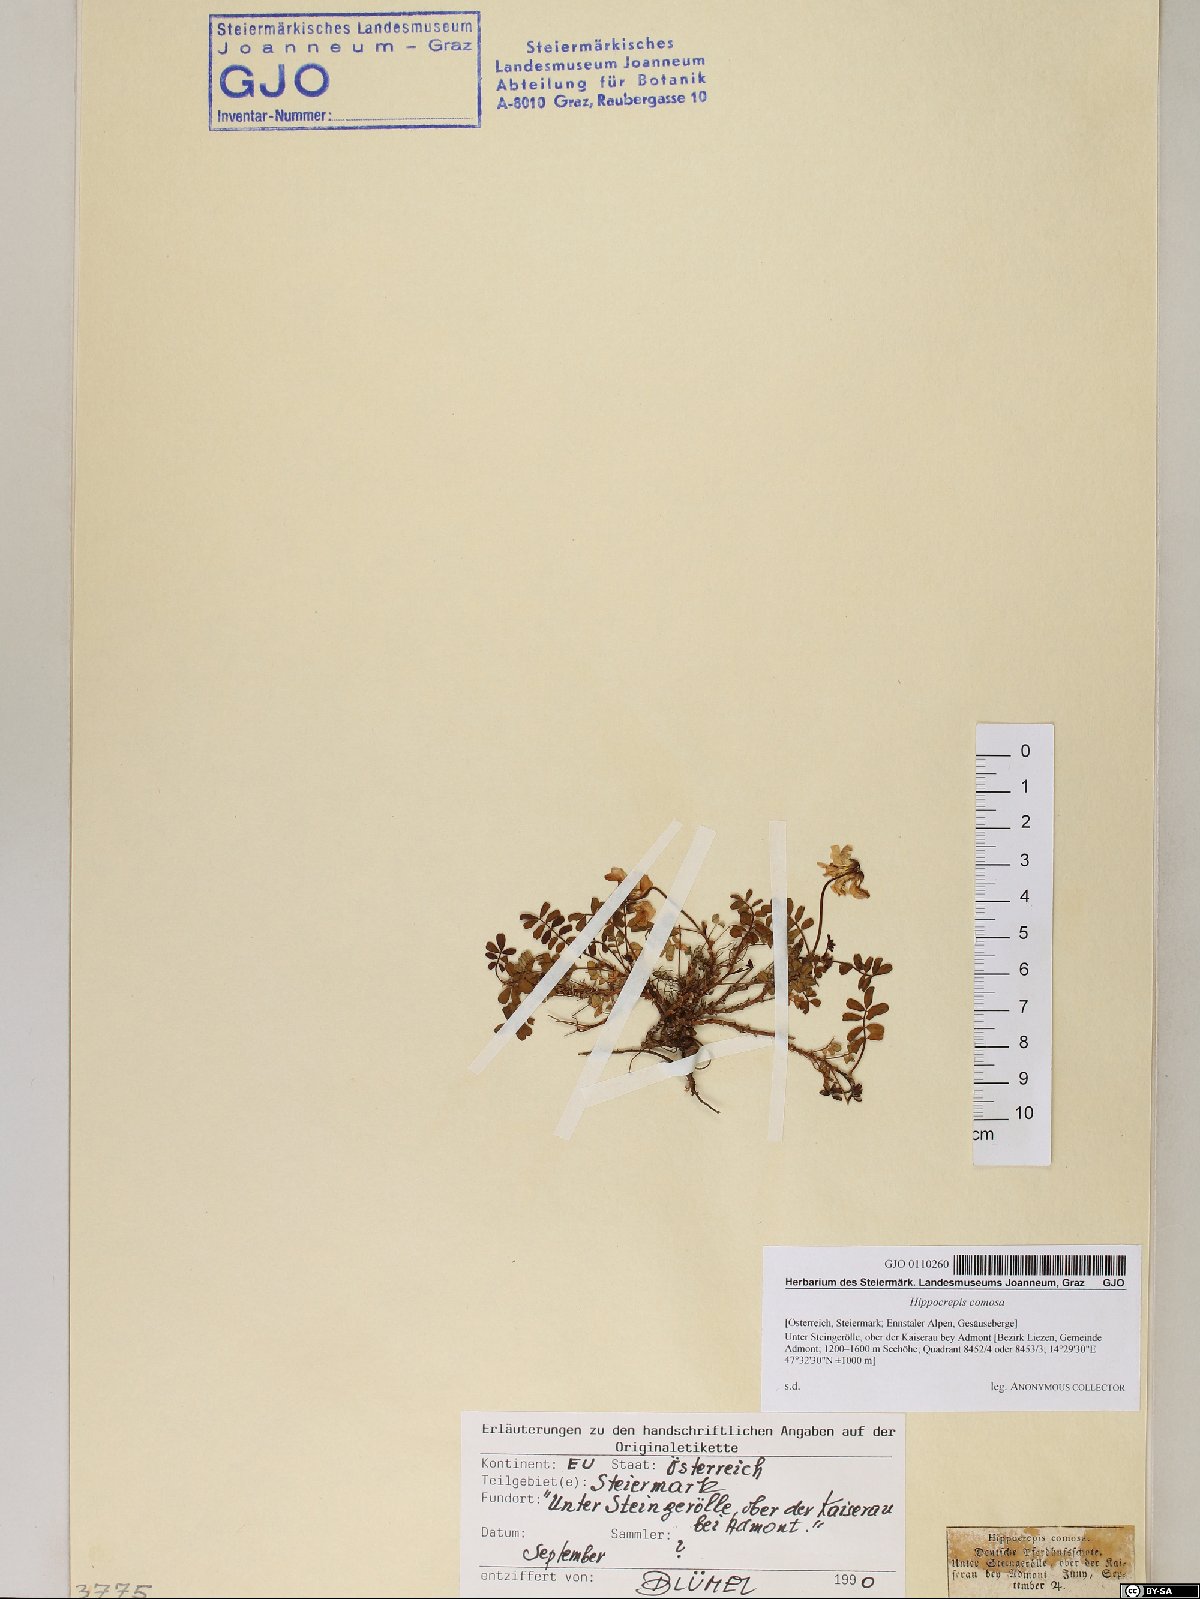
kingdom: Plantae
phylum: Tracheophyta
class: Magnoliopsida
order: Fabales
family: Fabaceae
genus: Hippocrepis
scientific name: Hippocrepis comosa
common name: Horseshoe vetch
